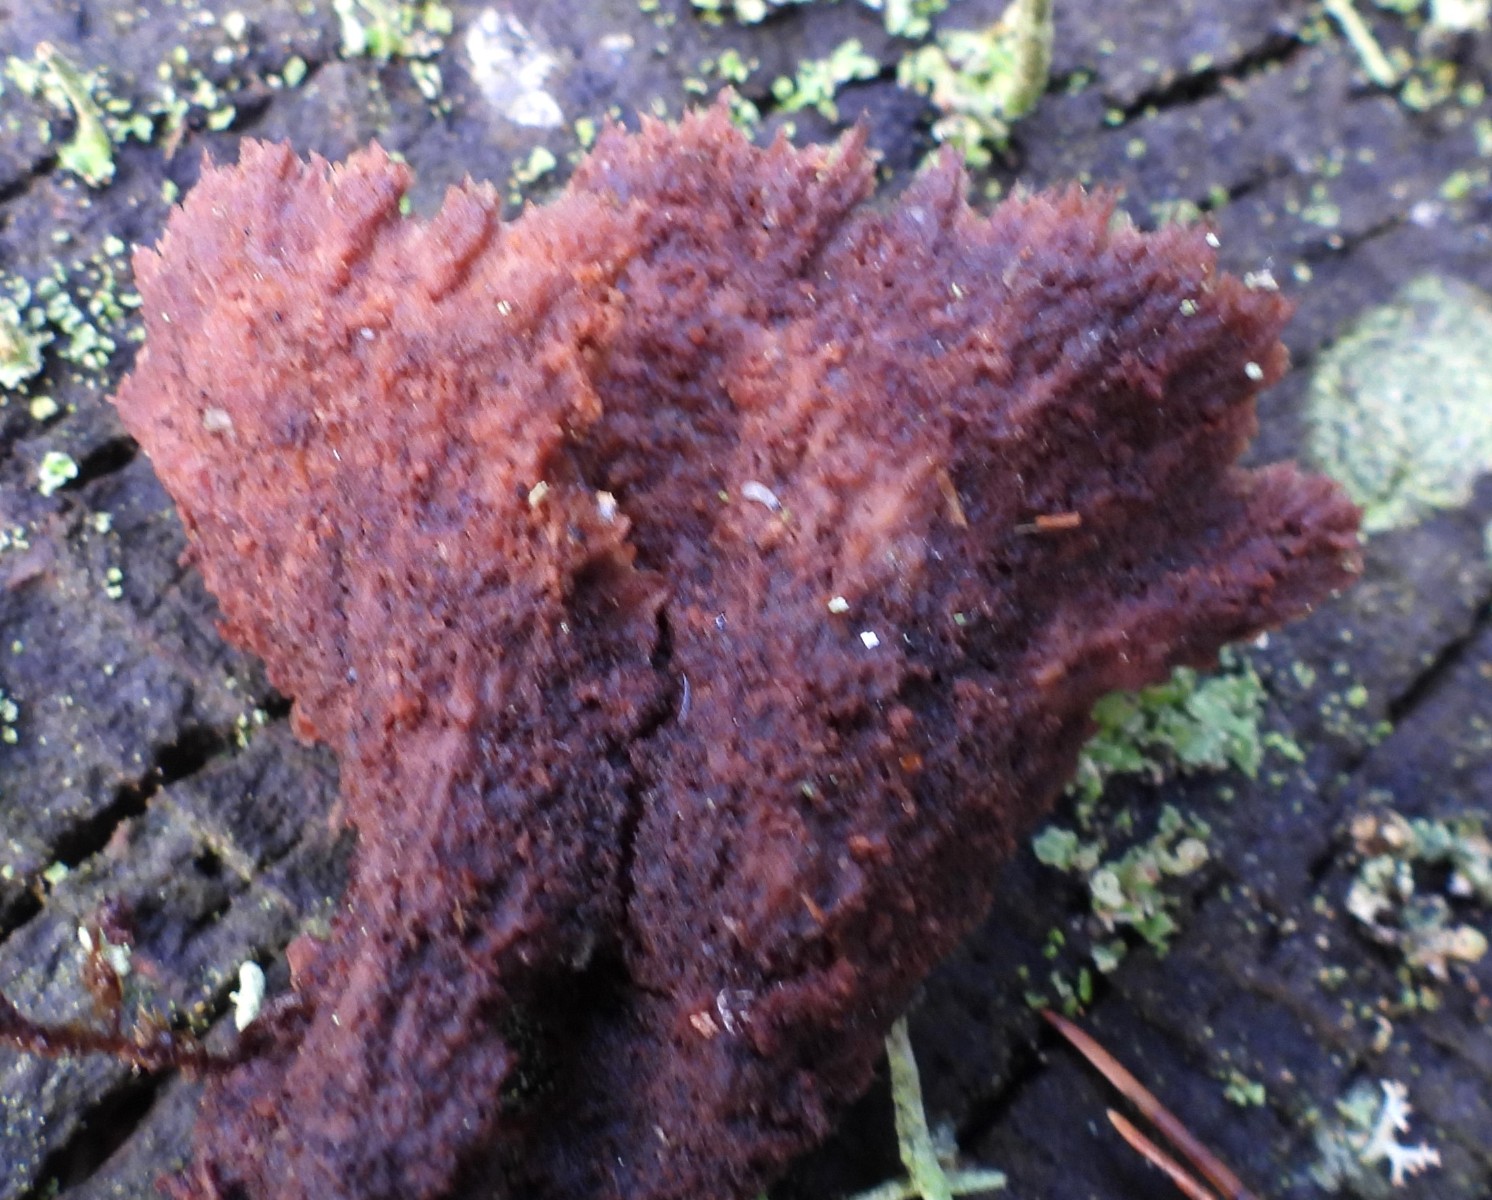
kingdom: Fungi
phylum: Basidiomycota
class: Agaricomycetes
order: Thelephorales
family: Thelephoraceae
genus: Thelephora
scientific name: Thelephora terrestris
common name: fliget frynsesvamp
